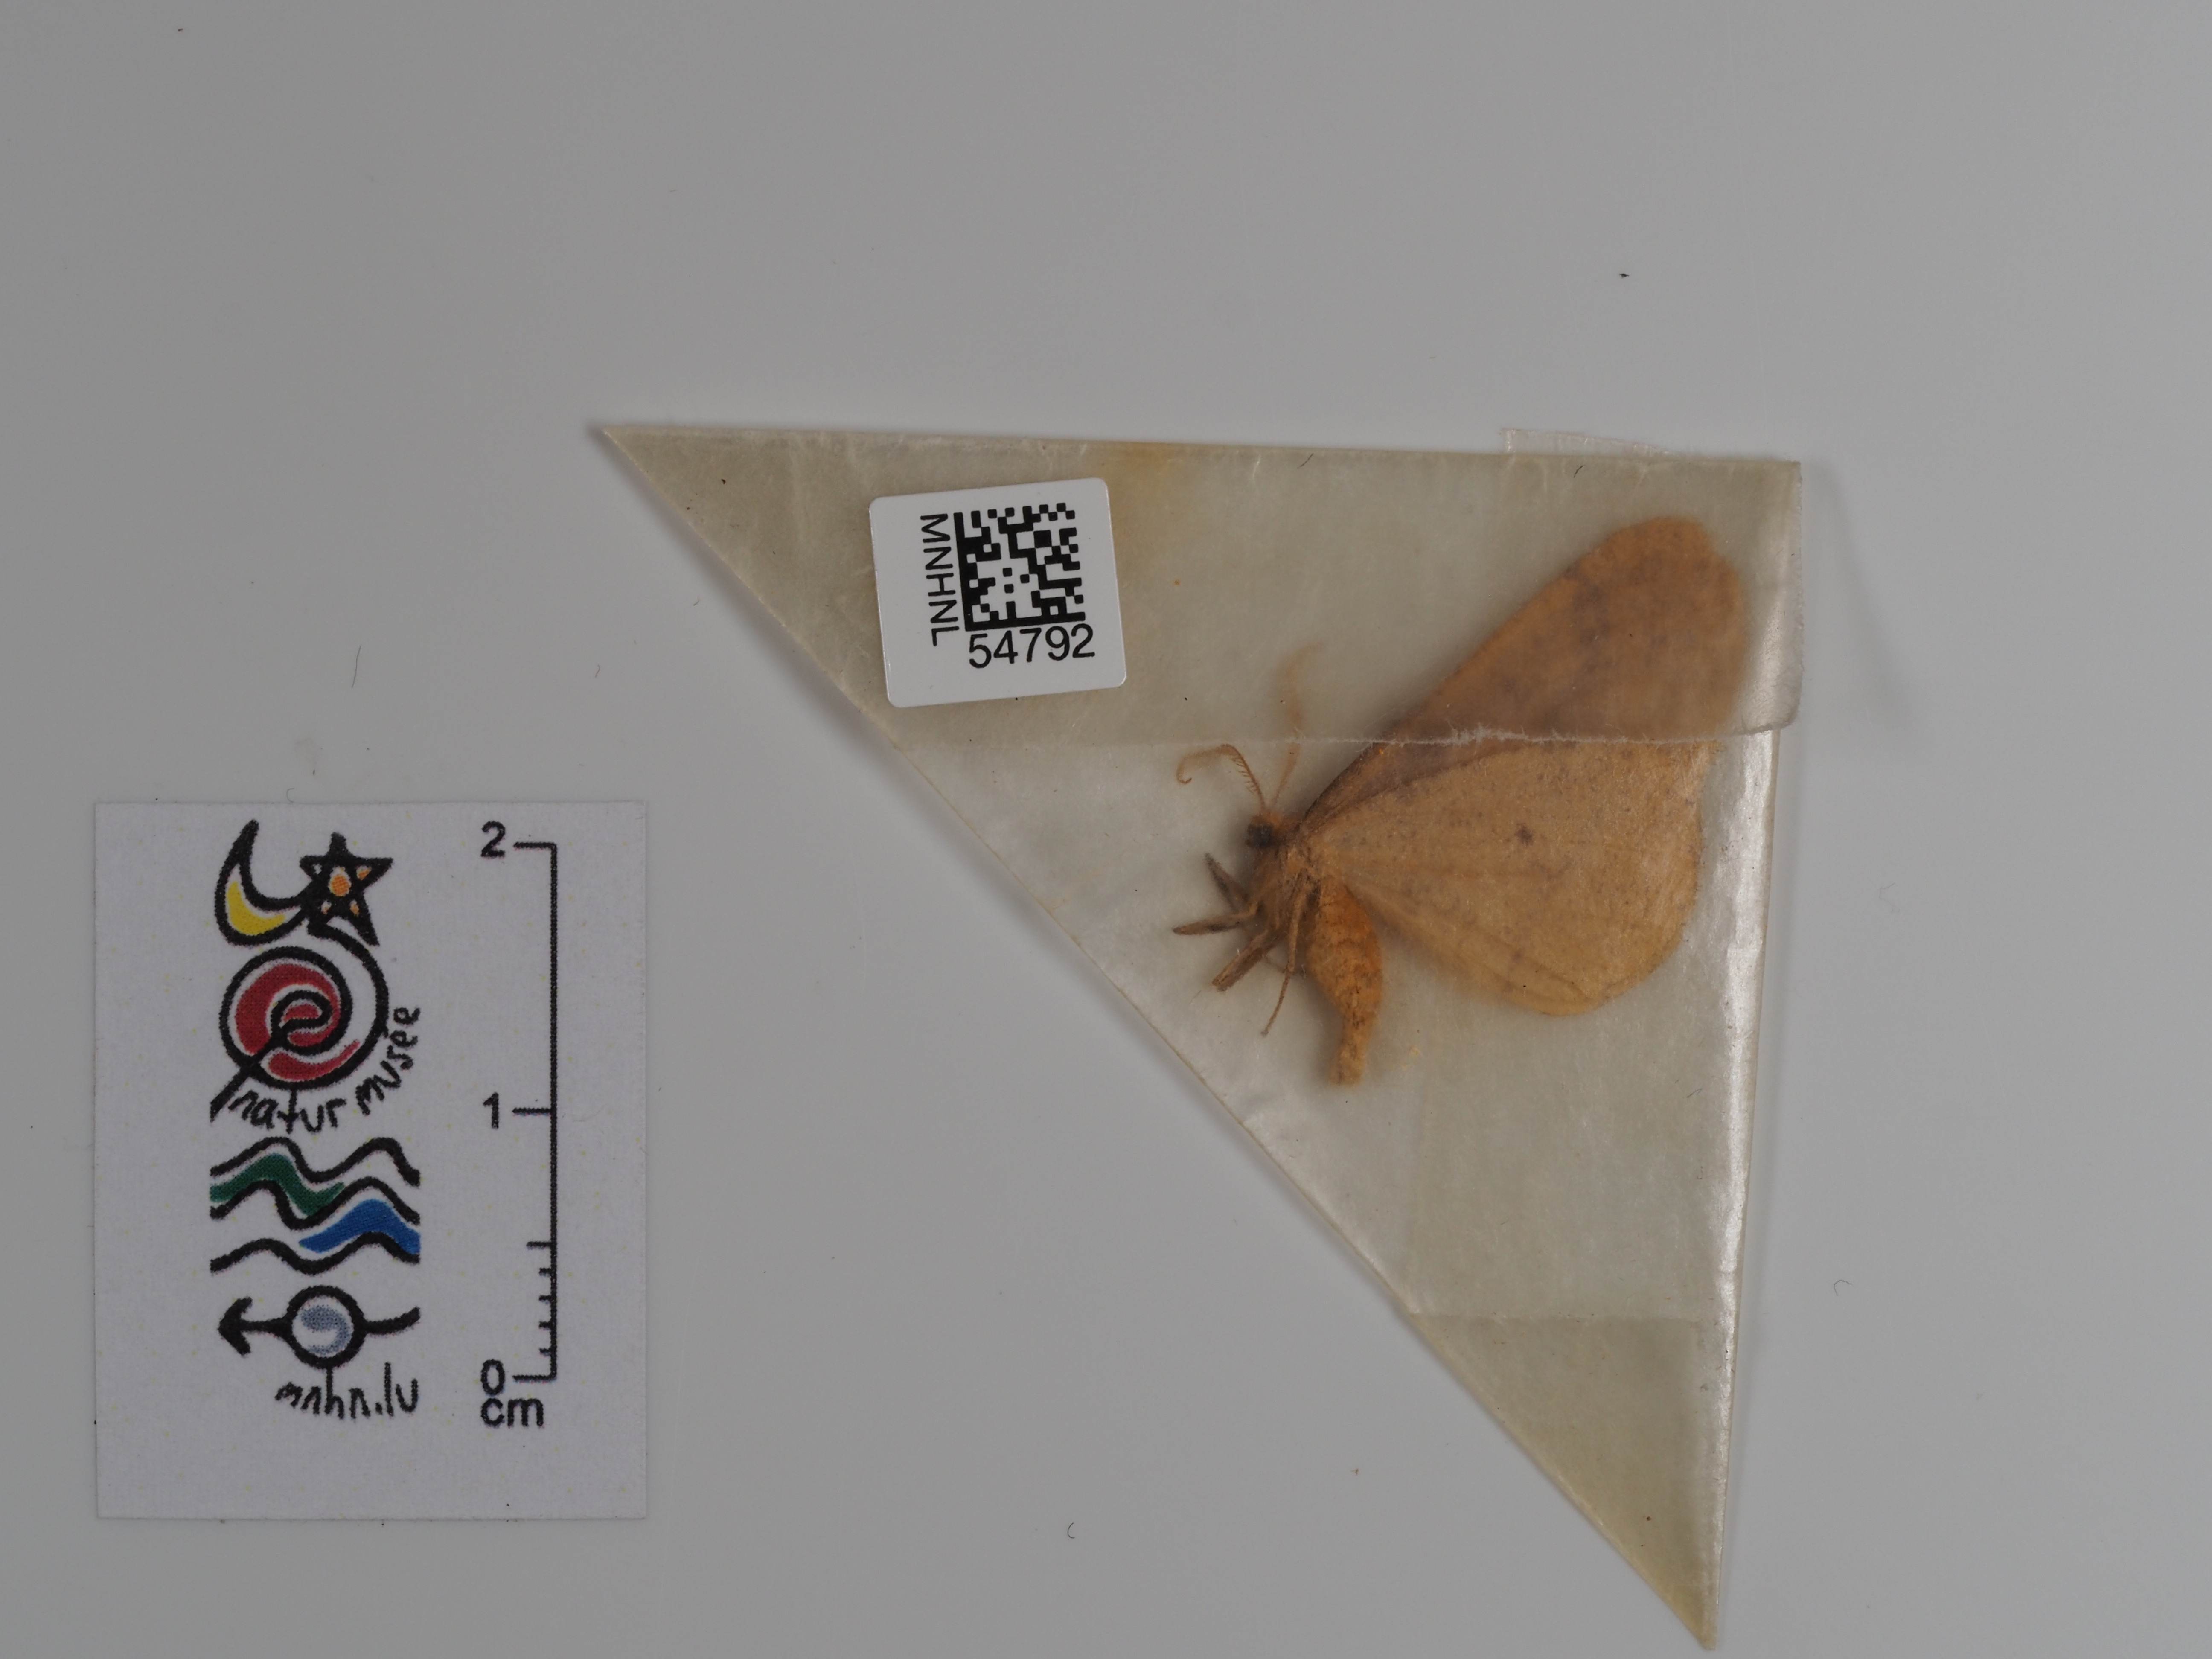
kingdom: Animalia
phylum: Arthropoda
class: Insecta
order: Lepidoptera
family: Geometridae
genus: Agriopis
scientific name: Agriopis aurantiaria
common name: Scarce umber
